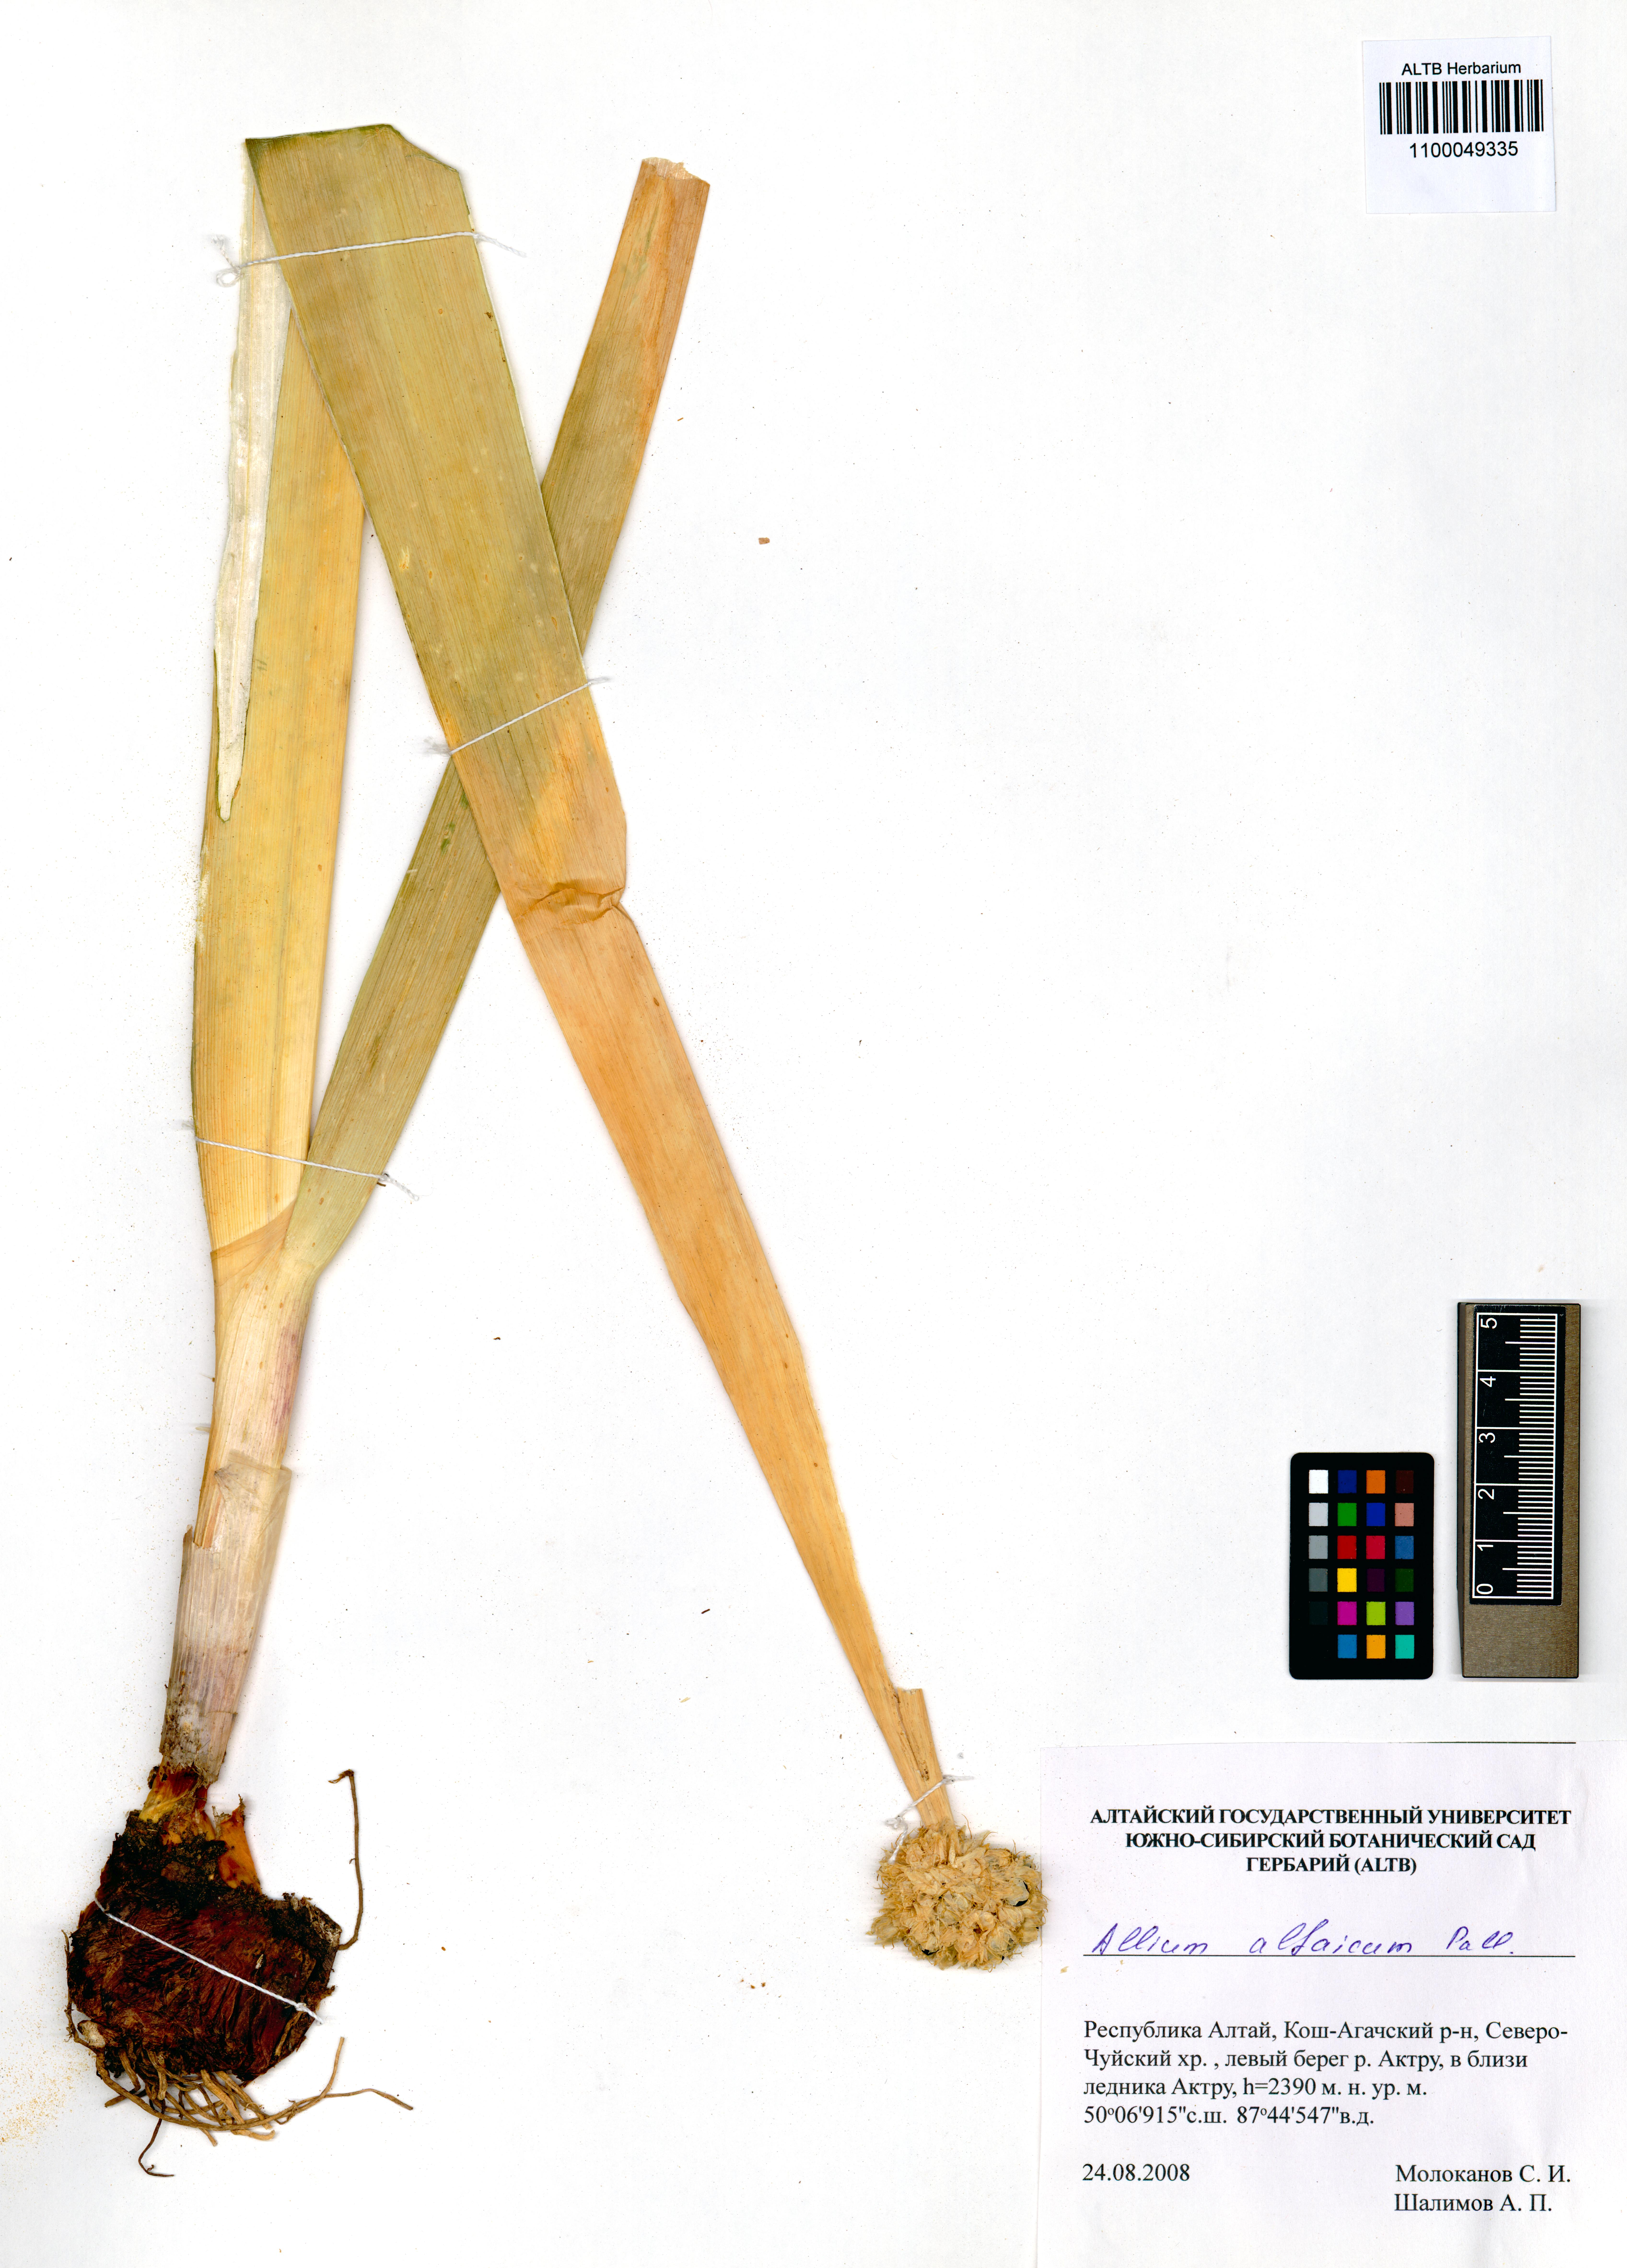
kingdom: Plantae
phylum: Tracheophyta
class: Liliopsida
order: Asparagales
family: Amaryllidaceae
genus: Allium
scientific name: Allium altaicum
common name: Altai onion
